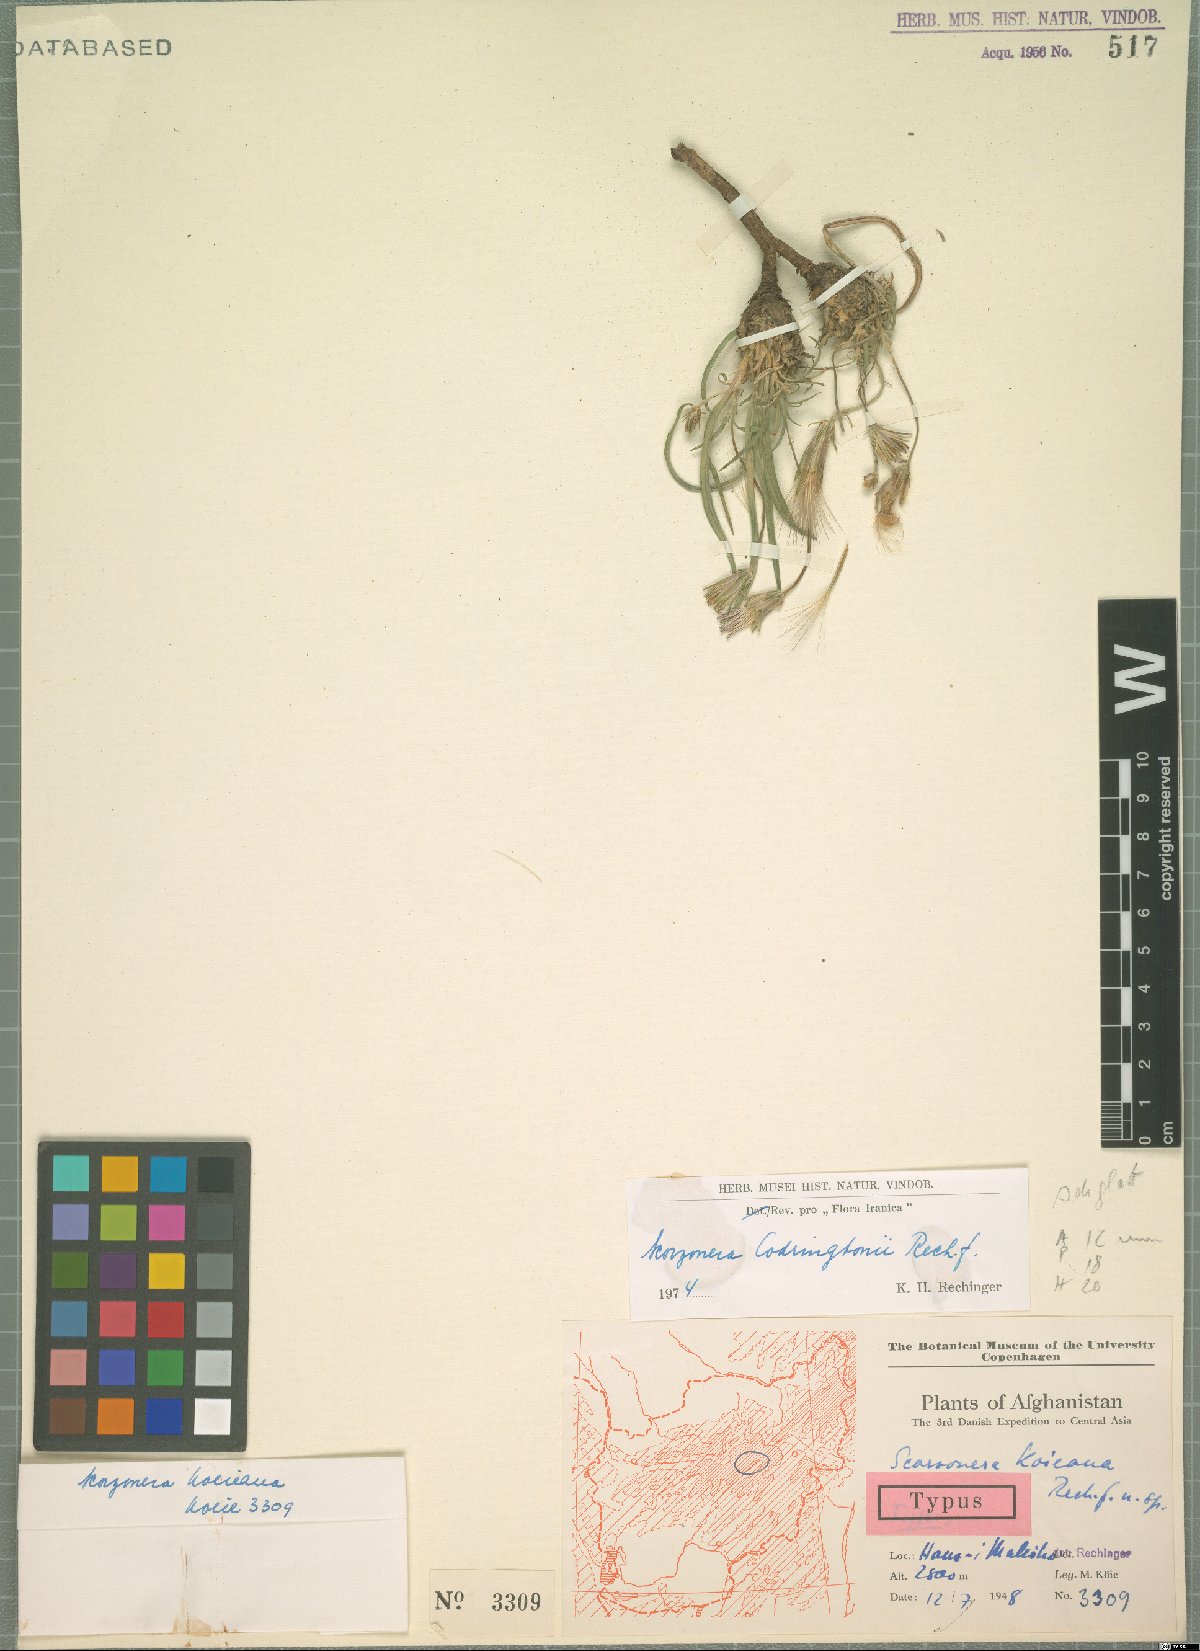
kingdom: Plantae
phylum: Tracheophyta
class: Magnoliopsida
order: Asterales
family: Asteraceae
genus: Pterachaenia
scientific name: Pterachaenia codringtonii
